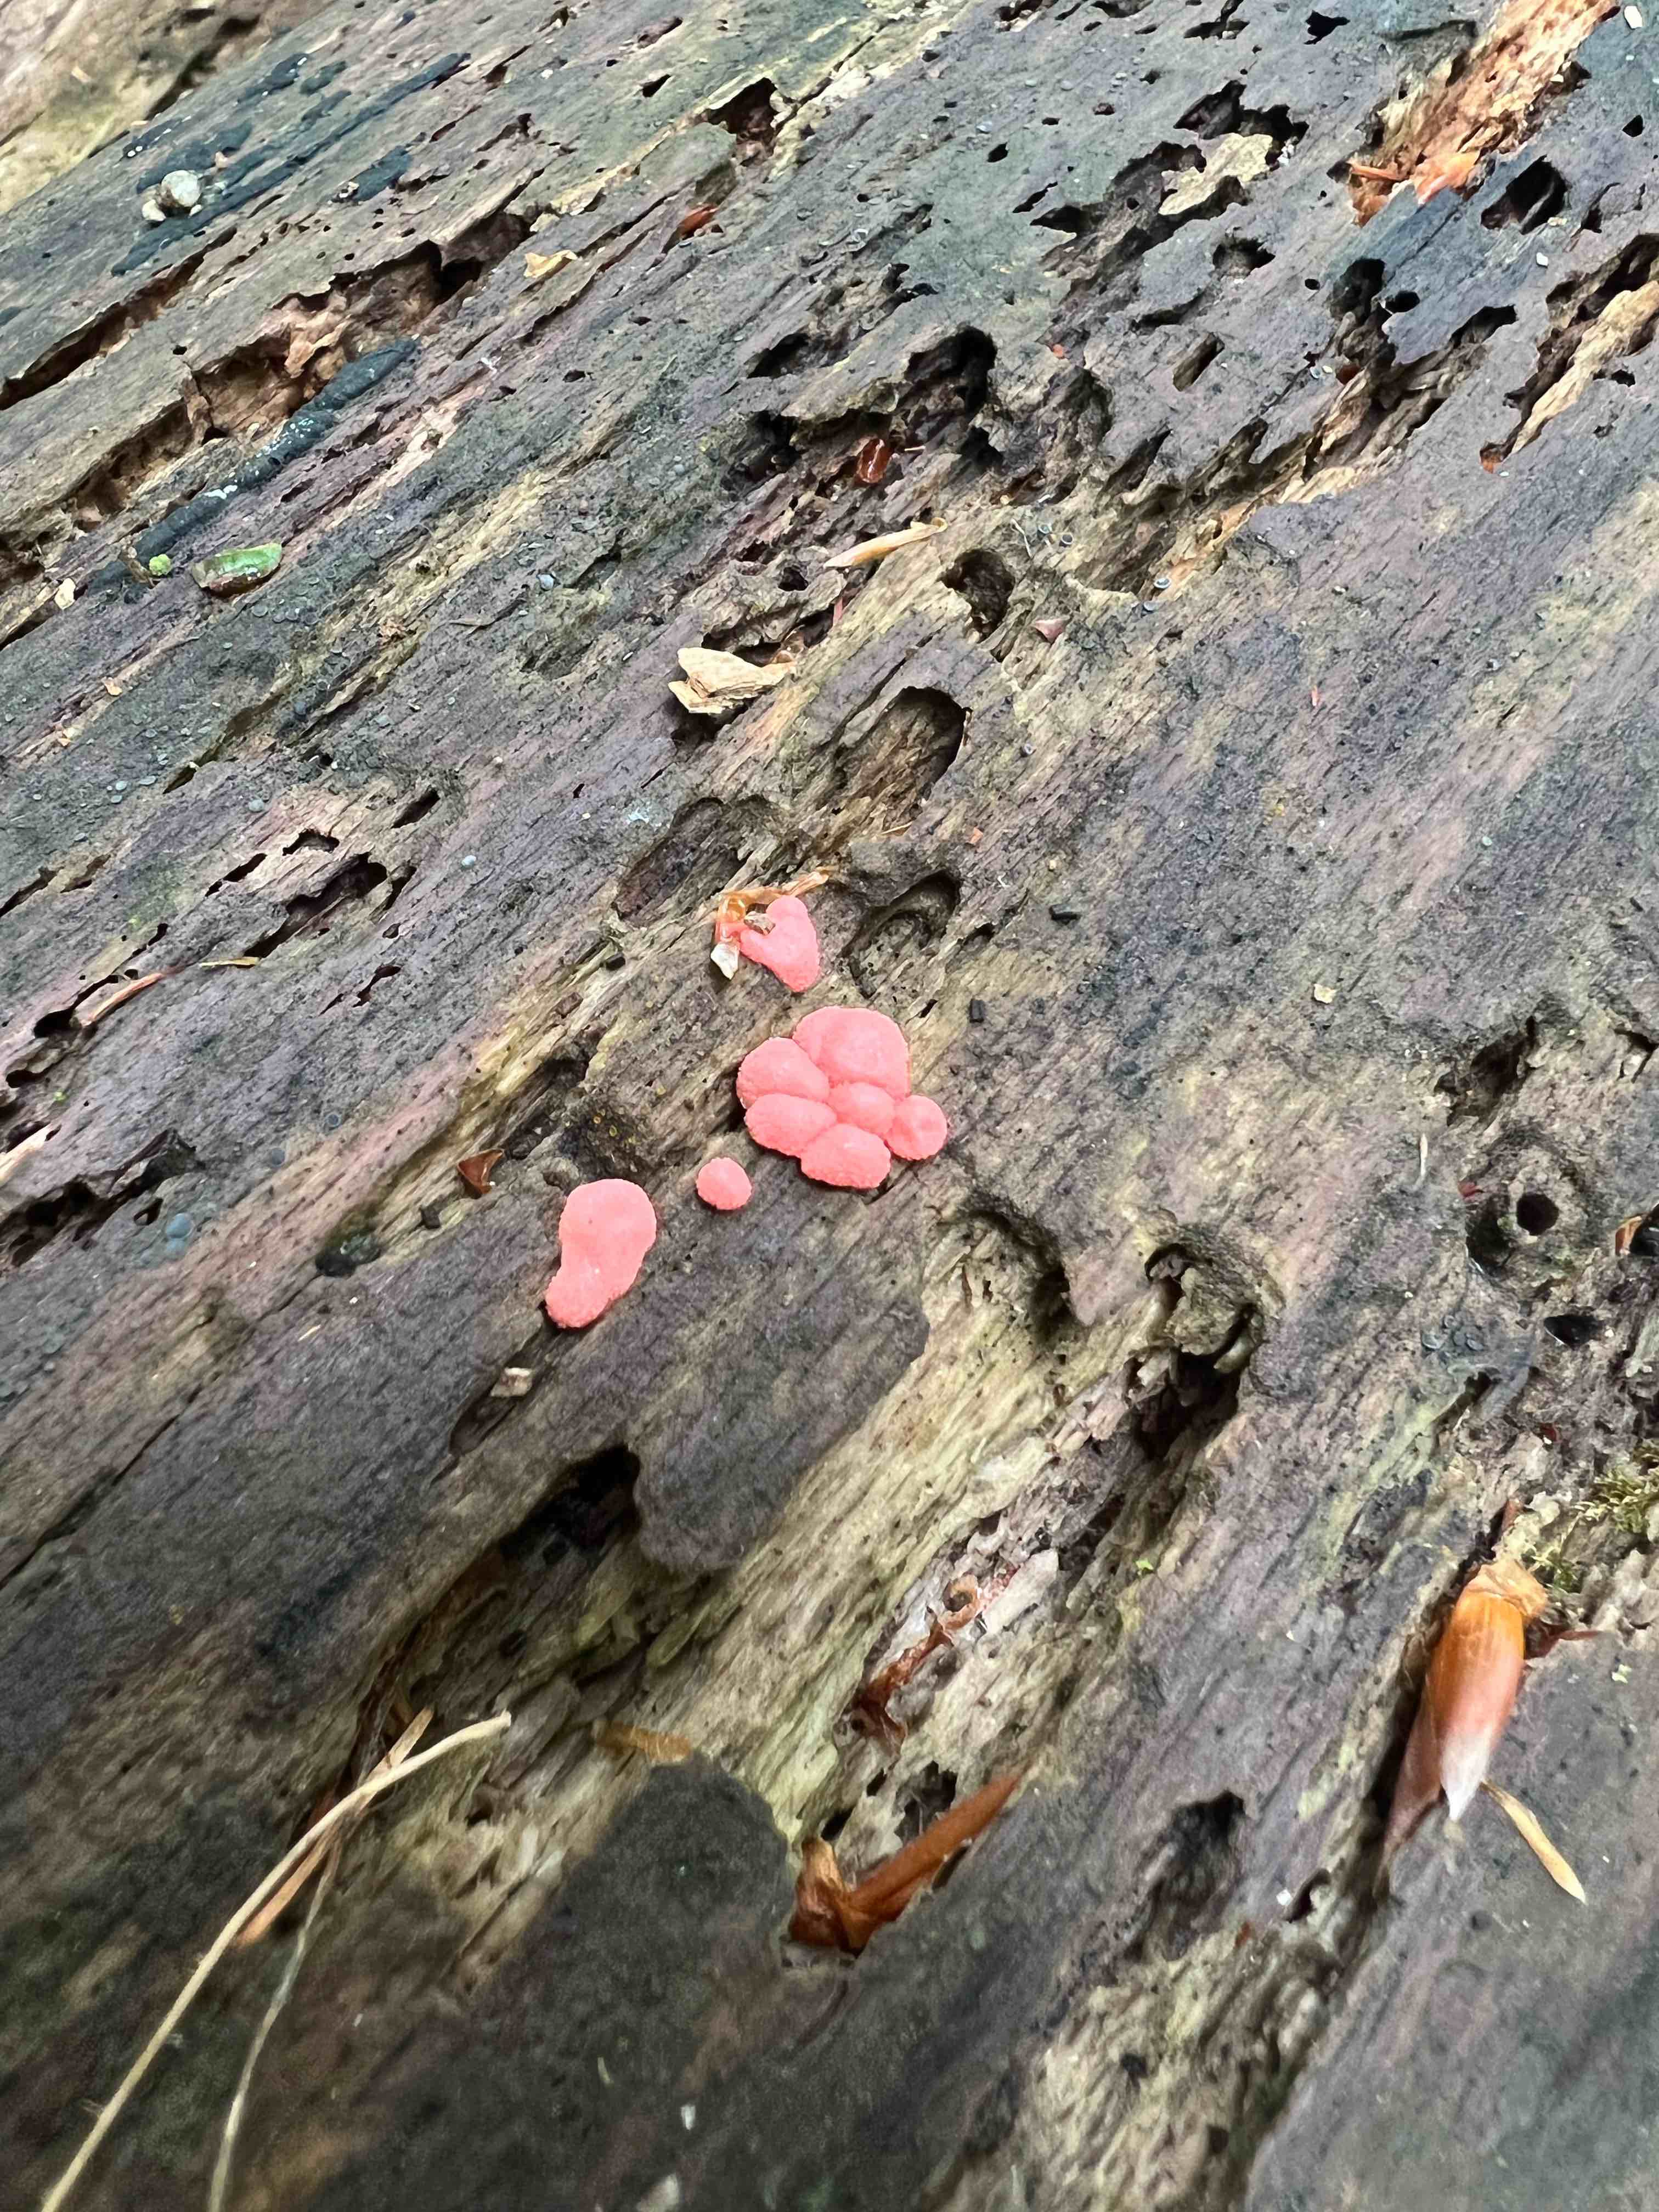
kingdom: Protozoa
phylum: Mycetozoa
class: Myxomycetes
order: Cribrariales
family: Tubiferaceae
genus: Lycogala
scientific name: Lycogala epidendrum
